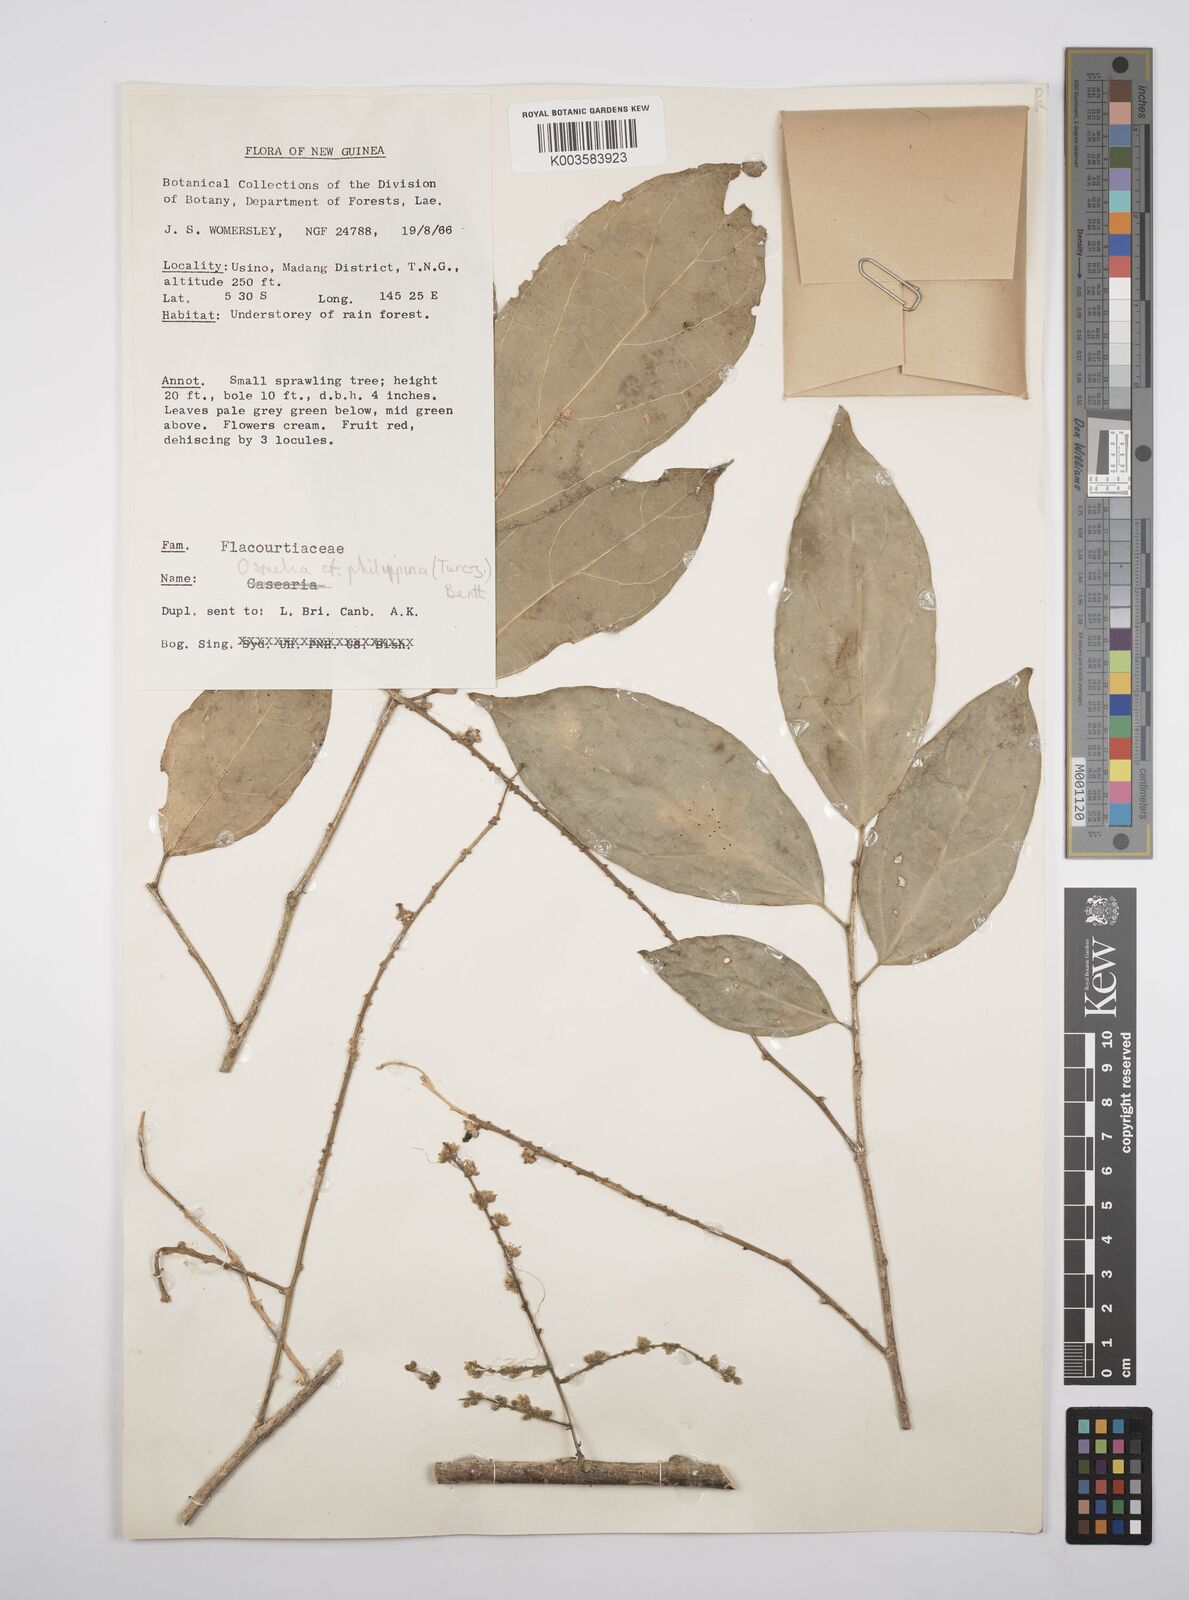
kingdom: Plantae
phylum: Tracheophyta
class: Magnoliopsida
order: Malpighiales
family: Salicaceae
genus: Osmelia
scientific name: Osmelia philippina
